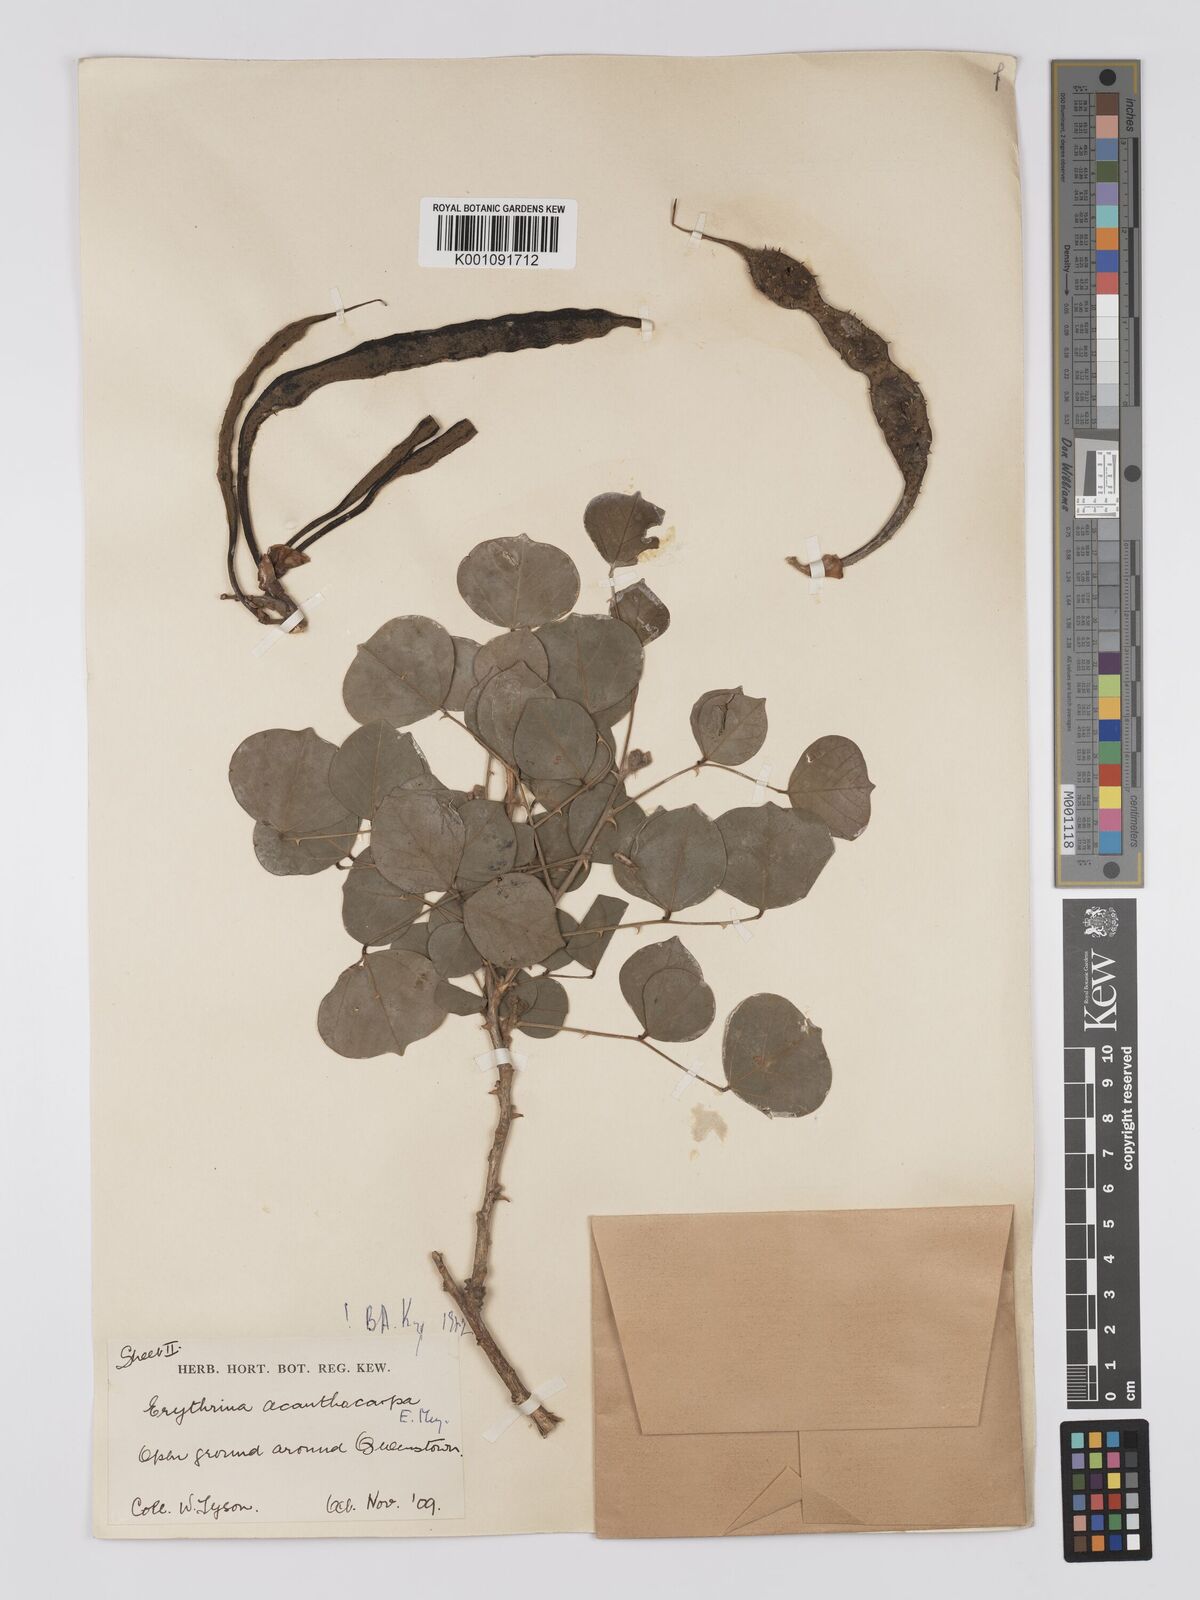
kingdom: Plantae
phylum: Tracheophyta
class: Magnoliopsida
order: Fabales
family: Fabaceae
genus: Erythrina
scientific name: Erythrina acanthocarpa
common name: Thorny coraltree
